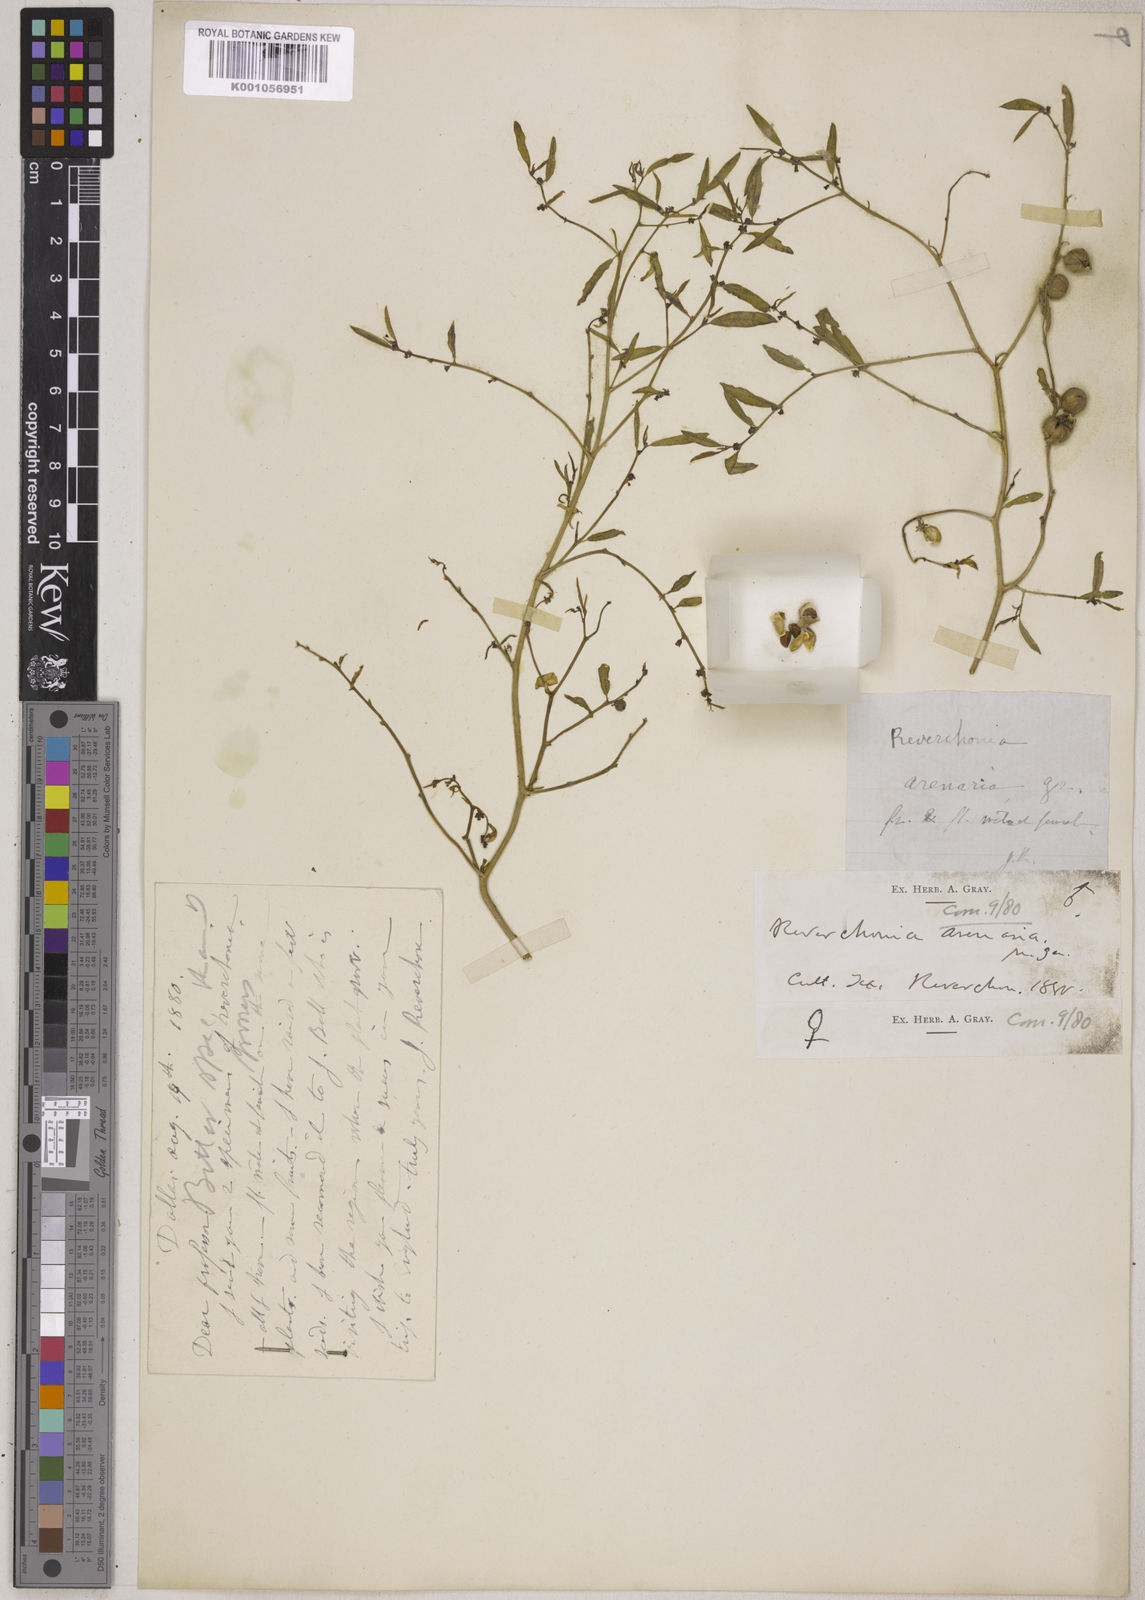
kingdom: Plantae
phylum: Tracheophyta
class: Magnoliopsida
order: Malpighiales
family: Phyllanthaceae
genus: Phyllanthus
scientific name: Phyllanthus warnockii
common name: Sand reverchonia
